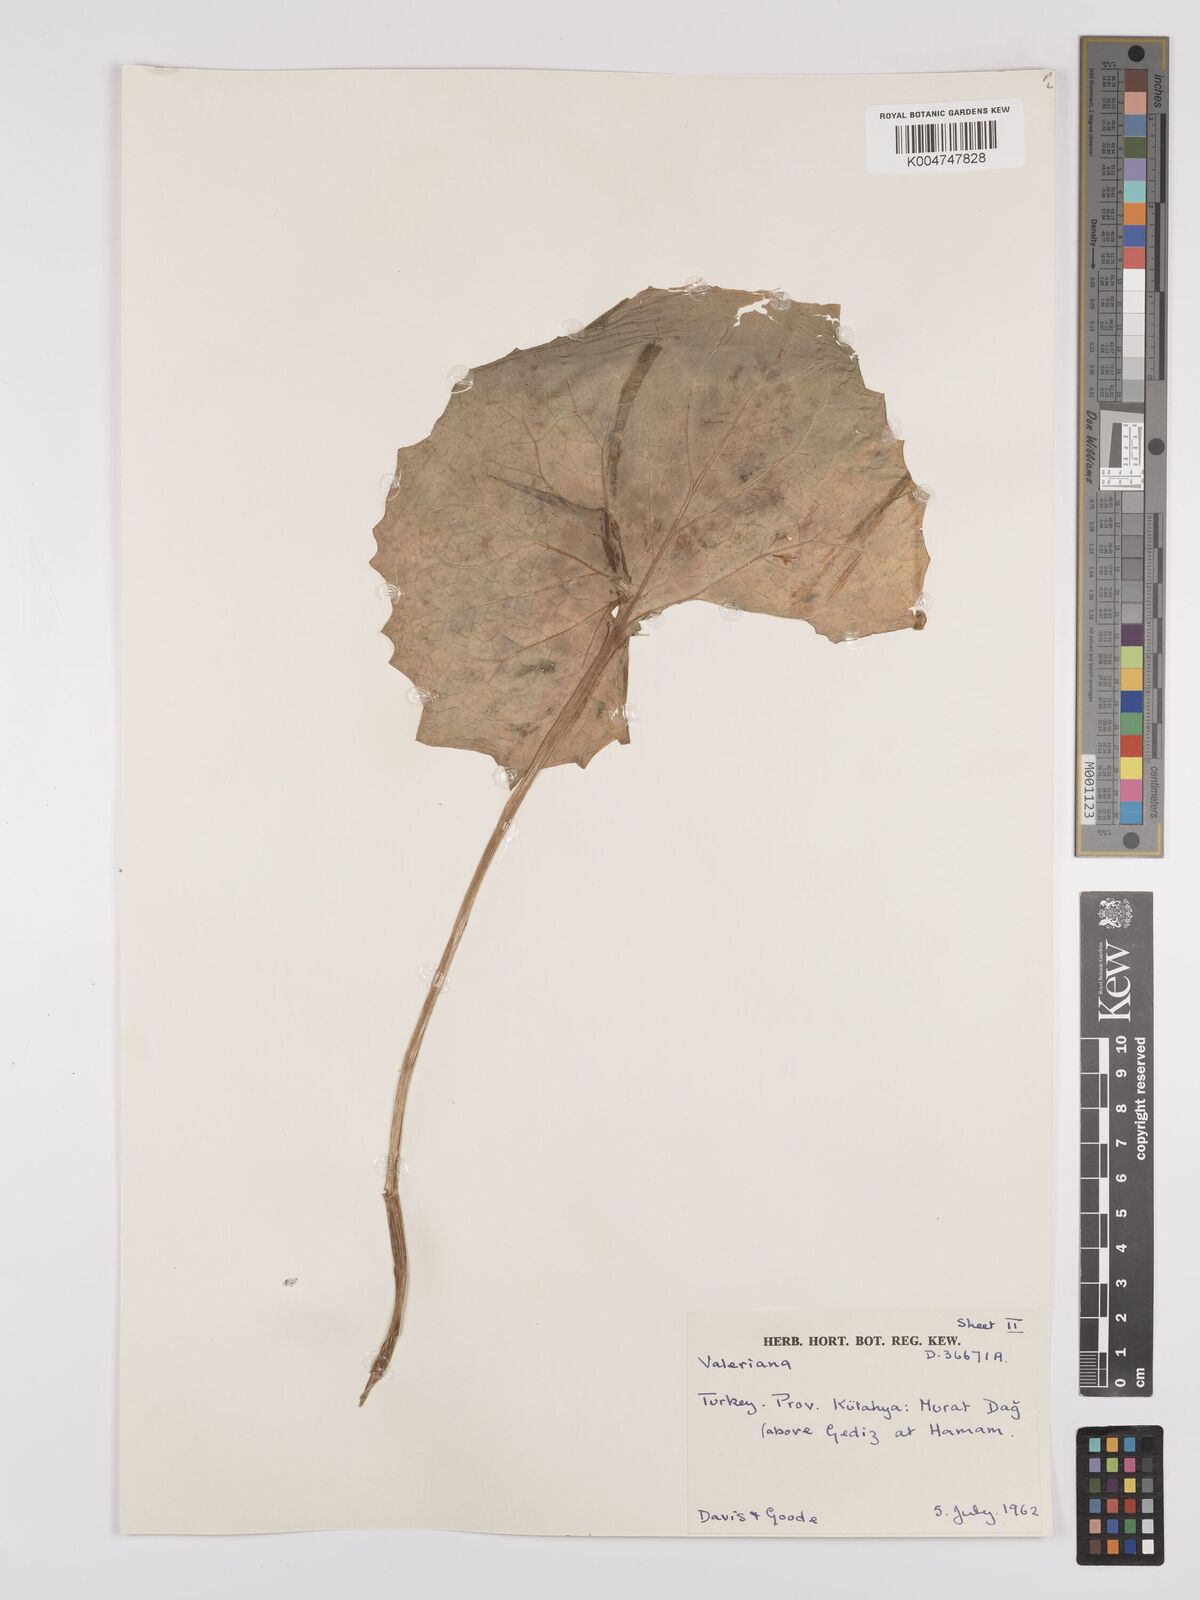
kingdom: Plantae
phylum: Tracheophyta
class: Magnoliopsida
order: Dipsacales
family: Caprifoliaceae
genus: Valeriana
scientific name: Valeriana
